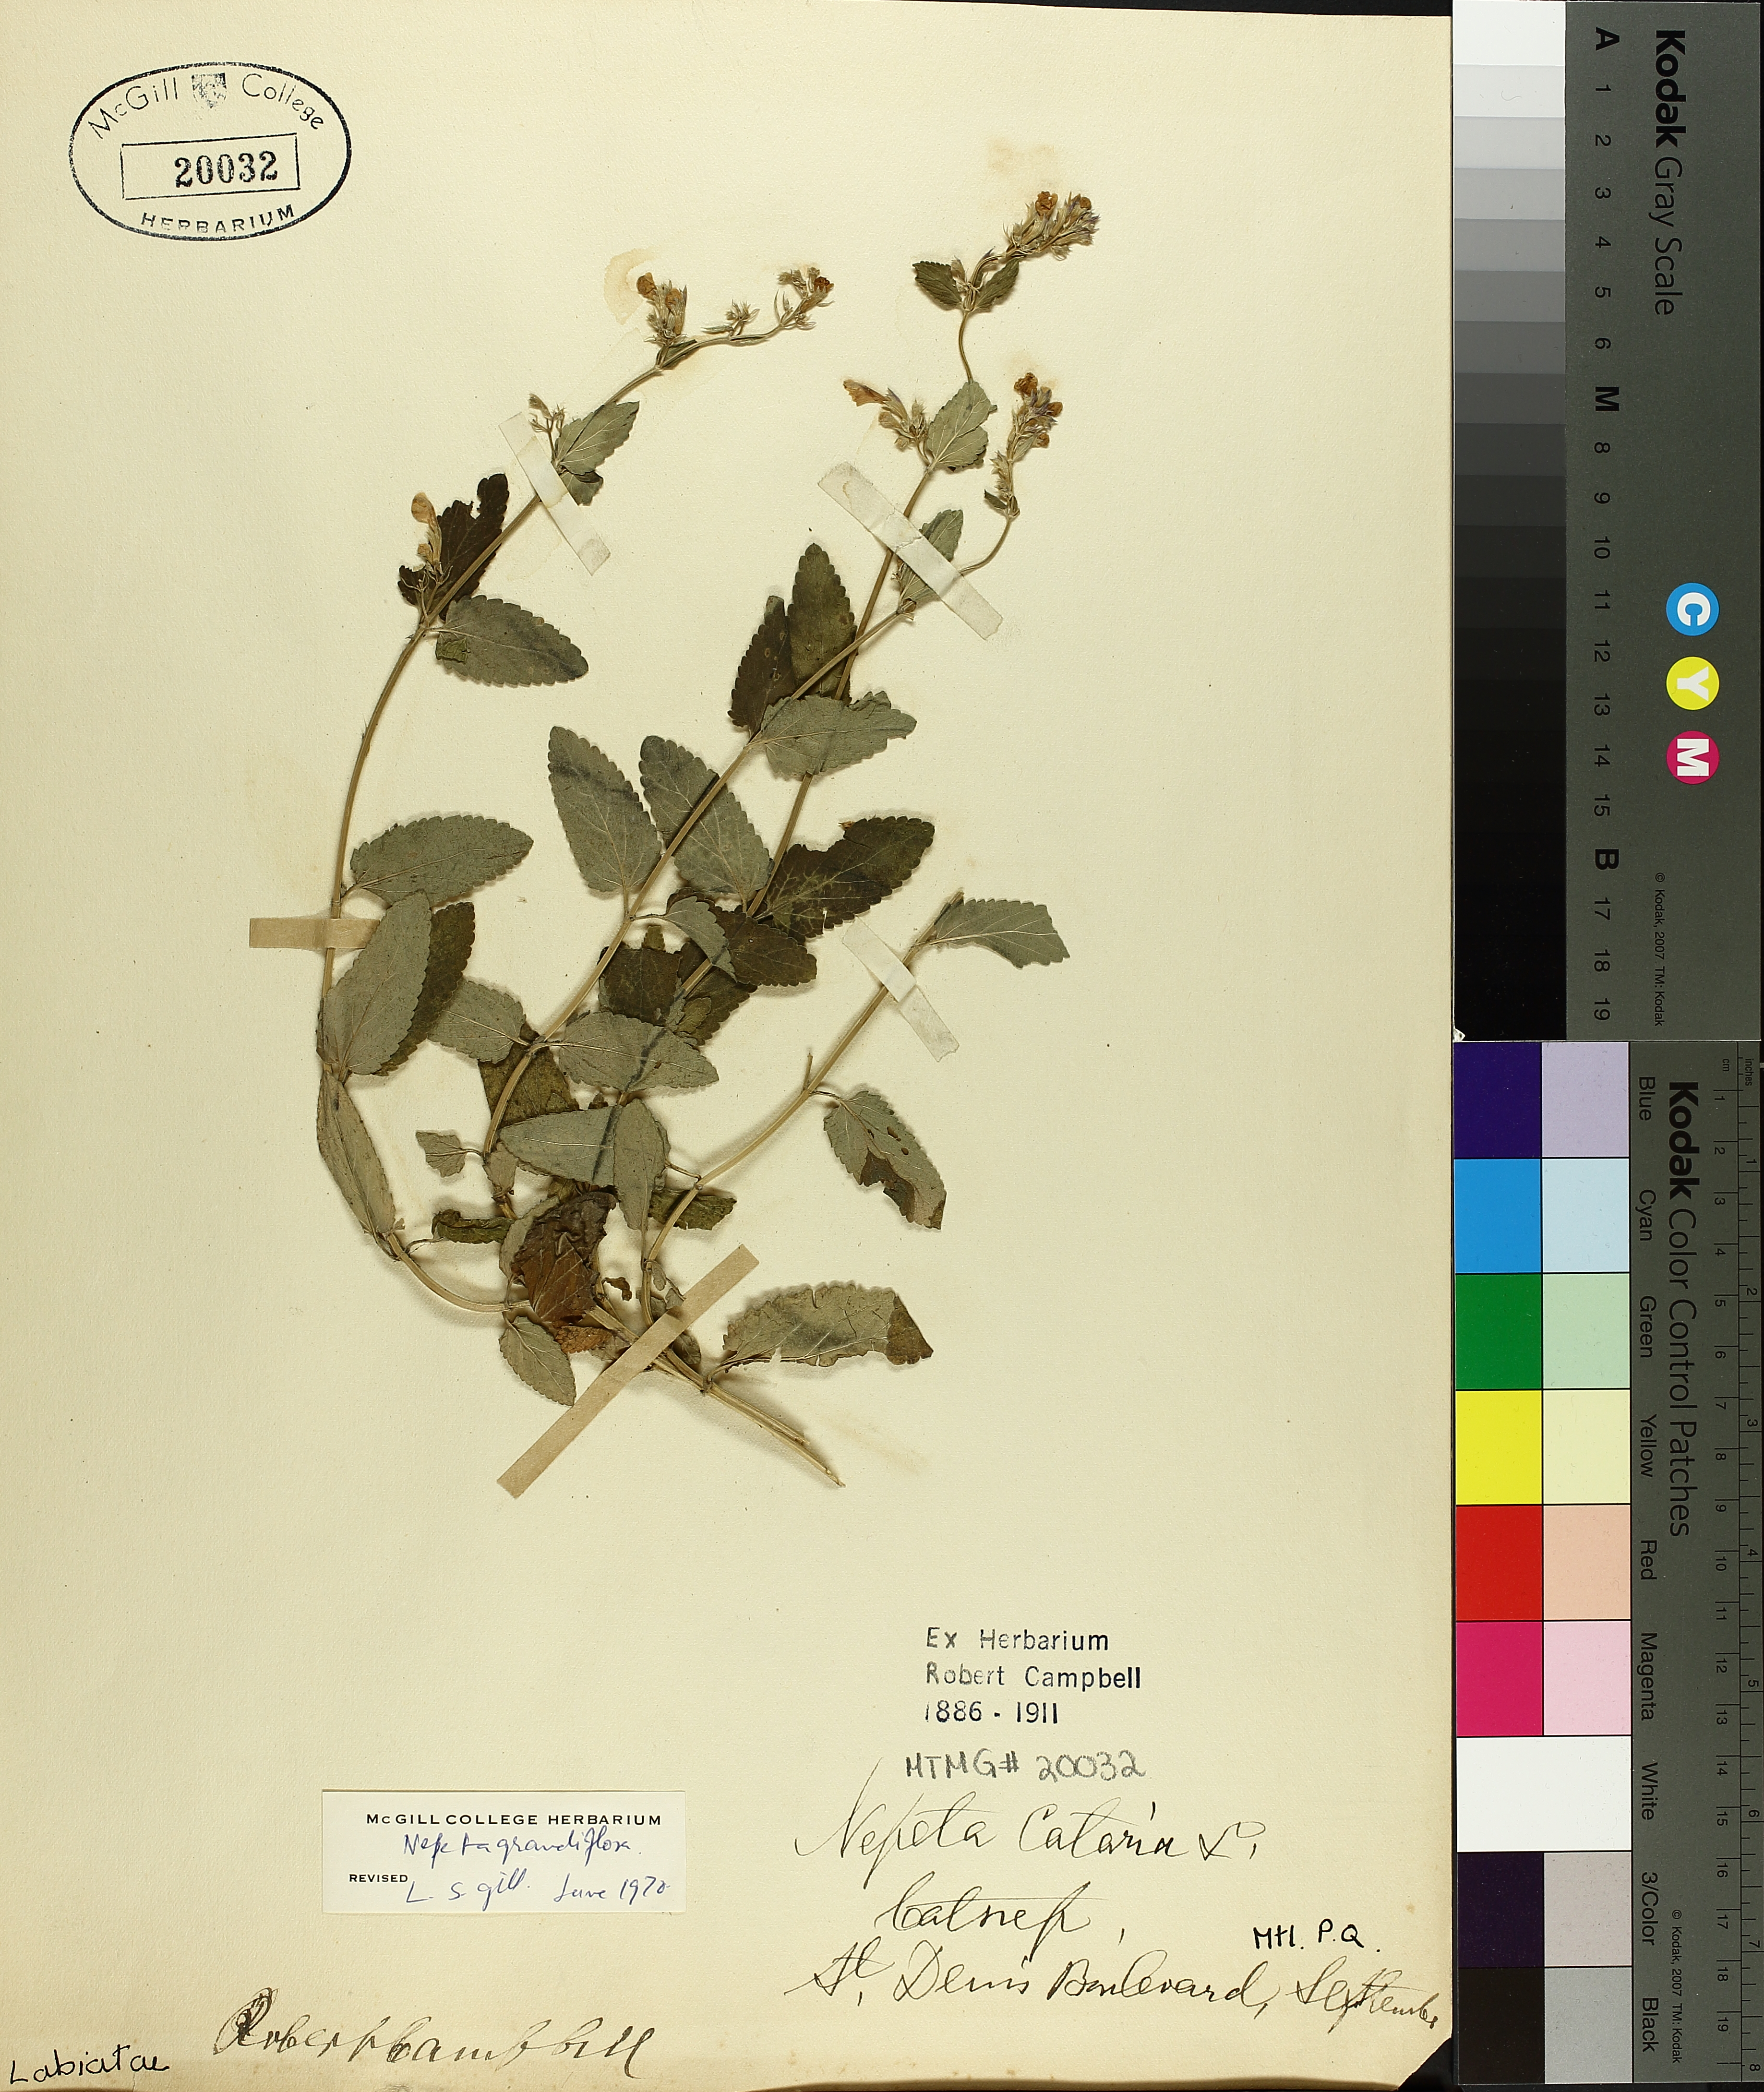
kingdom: Plantae
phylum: Tracheophyta
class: Magnoliopsida
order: Lamiales
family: Lamiaceae
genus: Nepeta
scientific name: Nepeta grandiflora
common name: Caucasus catmint
